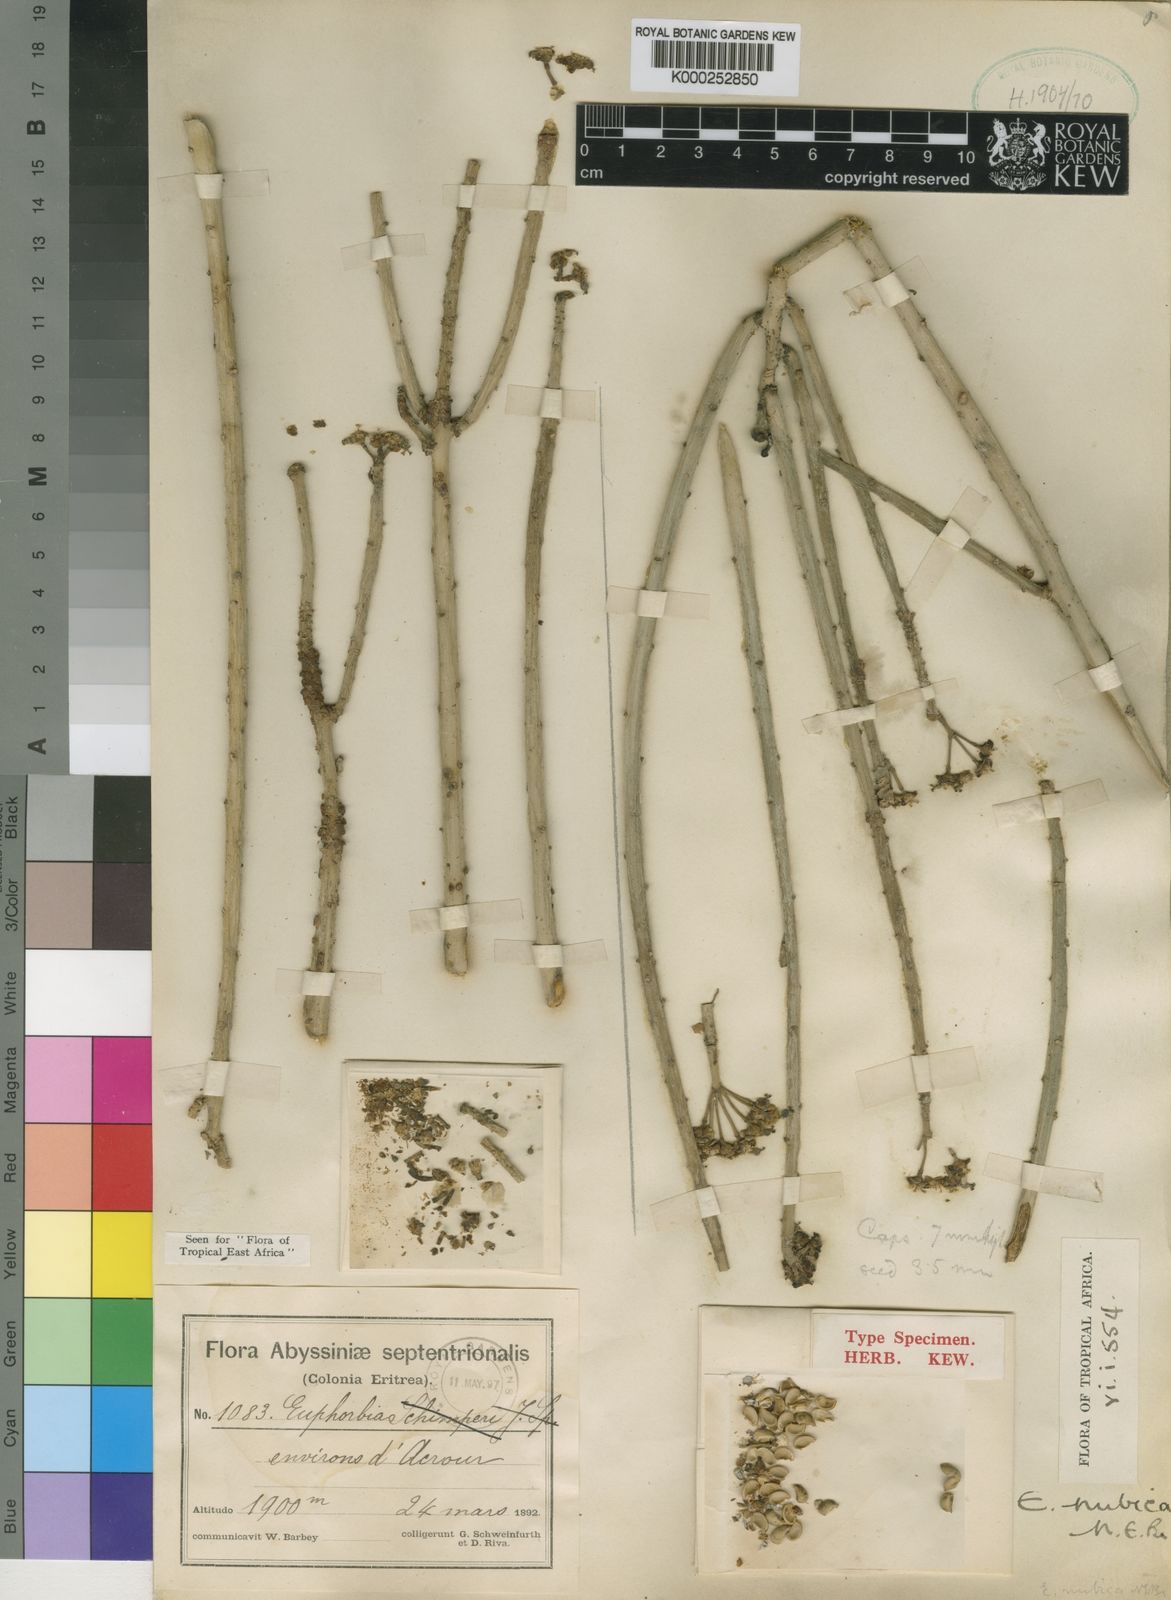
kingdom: Plantae
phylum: Tracheophyta
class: Magnoliopsida
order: Malpighiales
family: Euphorbiaceae
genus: Euphorbia
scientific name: Euphorbia nubica
